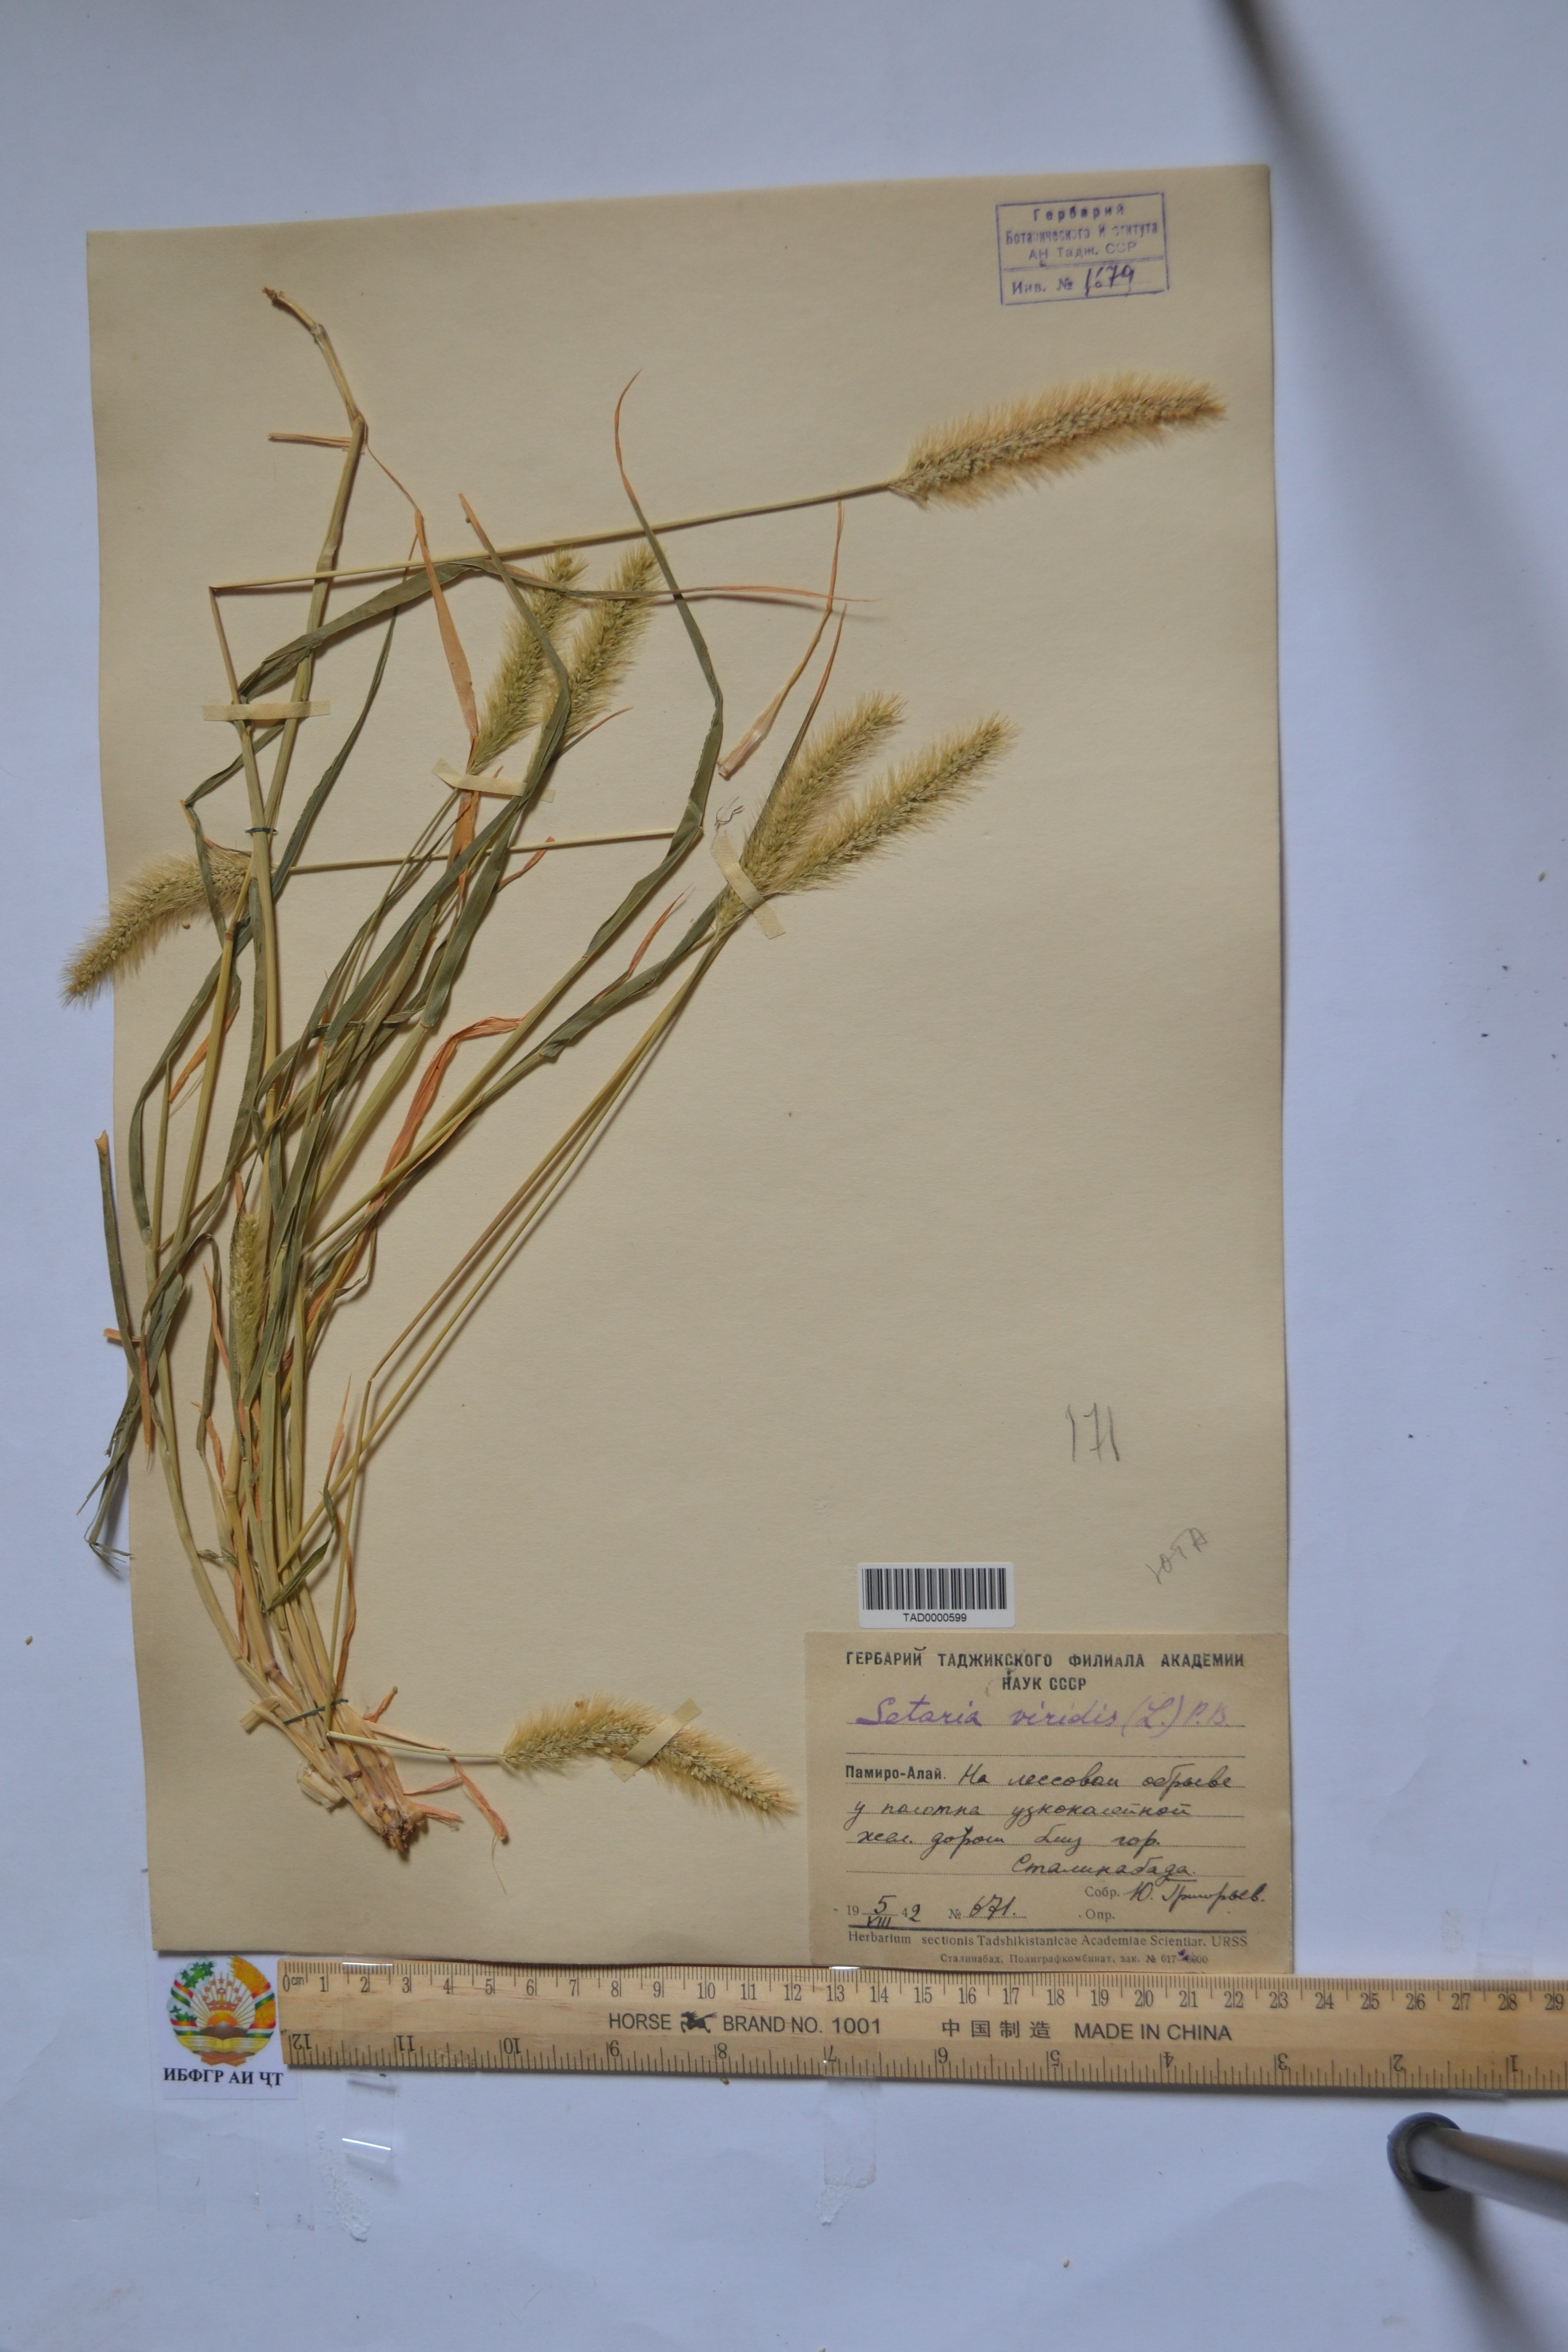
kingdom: Plantae
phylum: Tracheophyta
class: Liliopsida
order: Poales
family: Poaceae
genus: Setaria
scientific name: Setaria viridis
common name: Green bristlegrass
